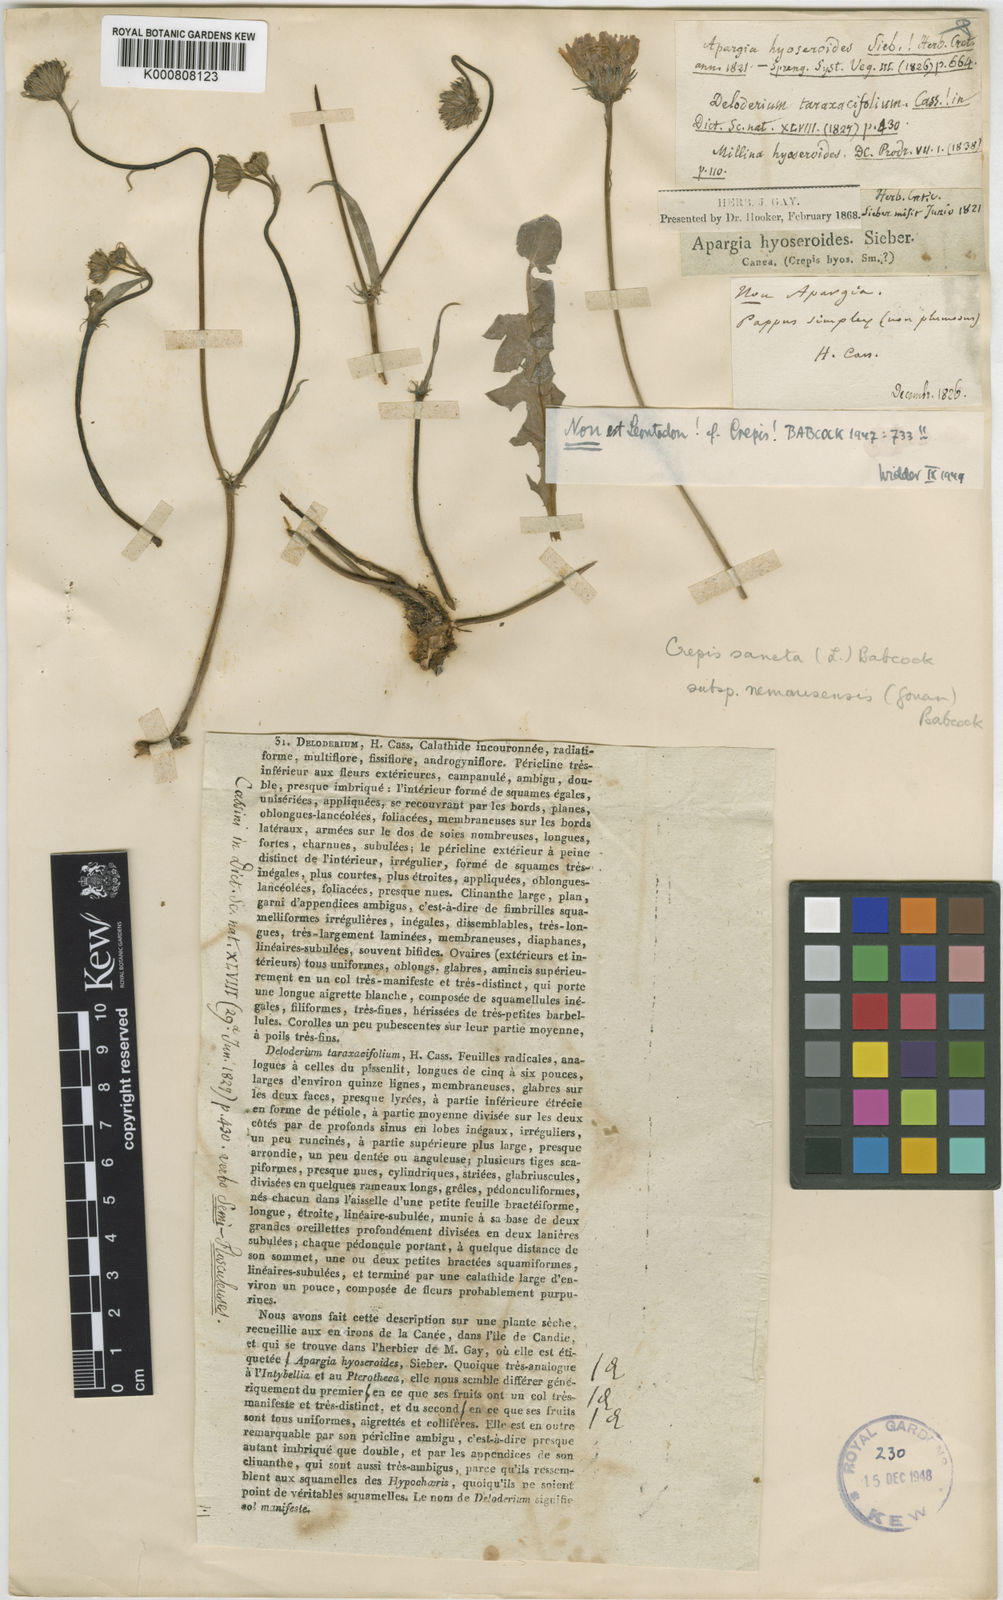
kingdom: Plantae
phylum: Tracheophyta
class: Magnoliopsida
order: Asterales
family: Asteraceae
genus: Crepis
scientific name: Crepis sancta
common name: Hawk's-beard
